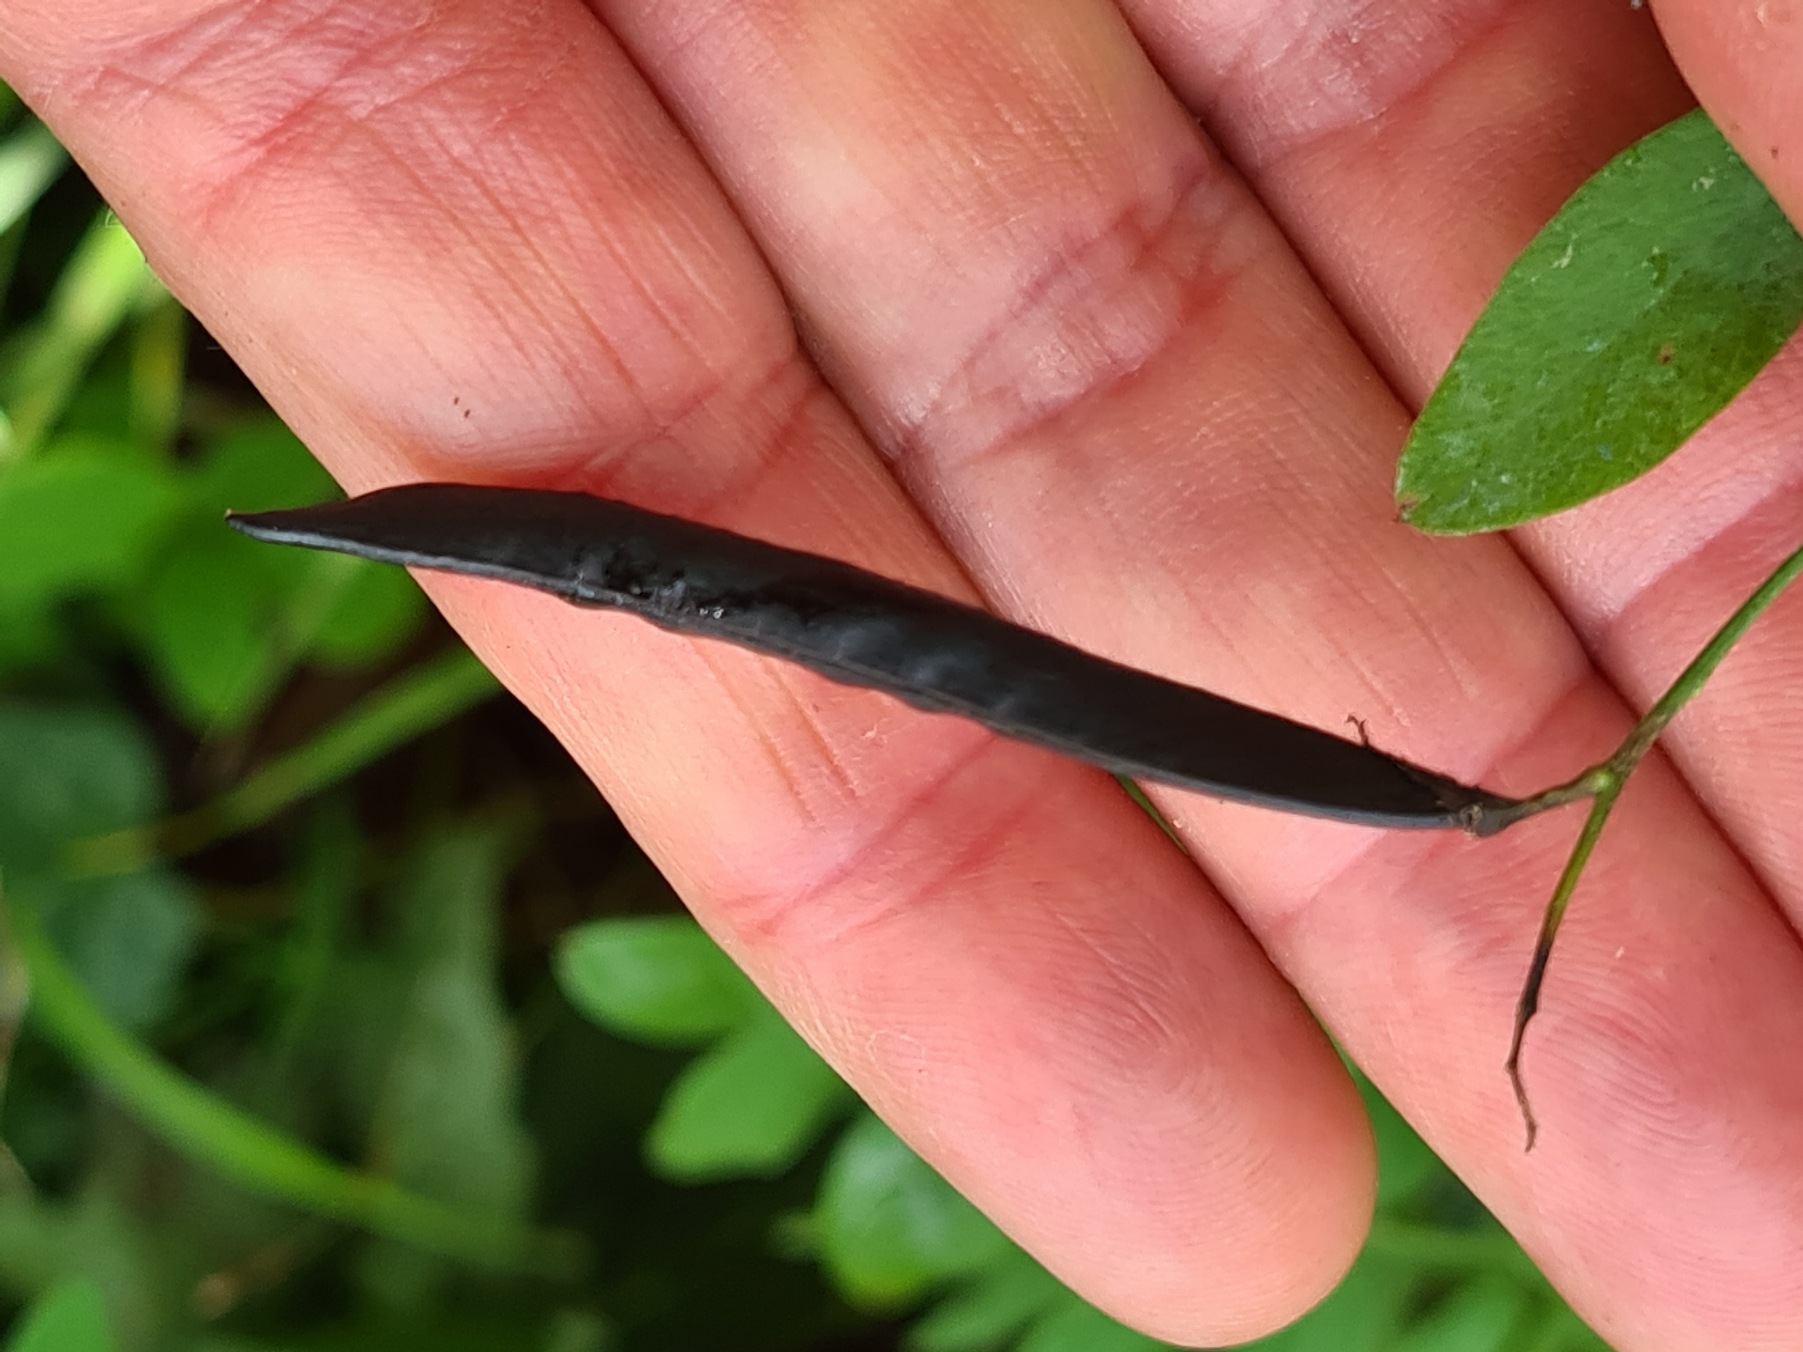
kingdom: Plantae
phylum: Tracheophyta
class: Magnoliopsida
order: Fabales
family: Fabaceae
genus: Lathyrus
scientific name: Lathyrus niger
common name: Sort fladbælg
